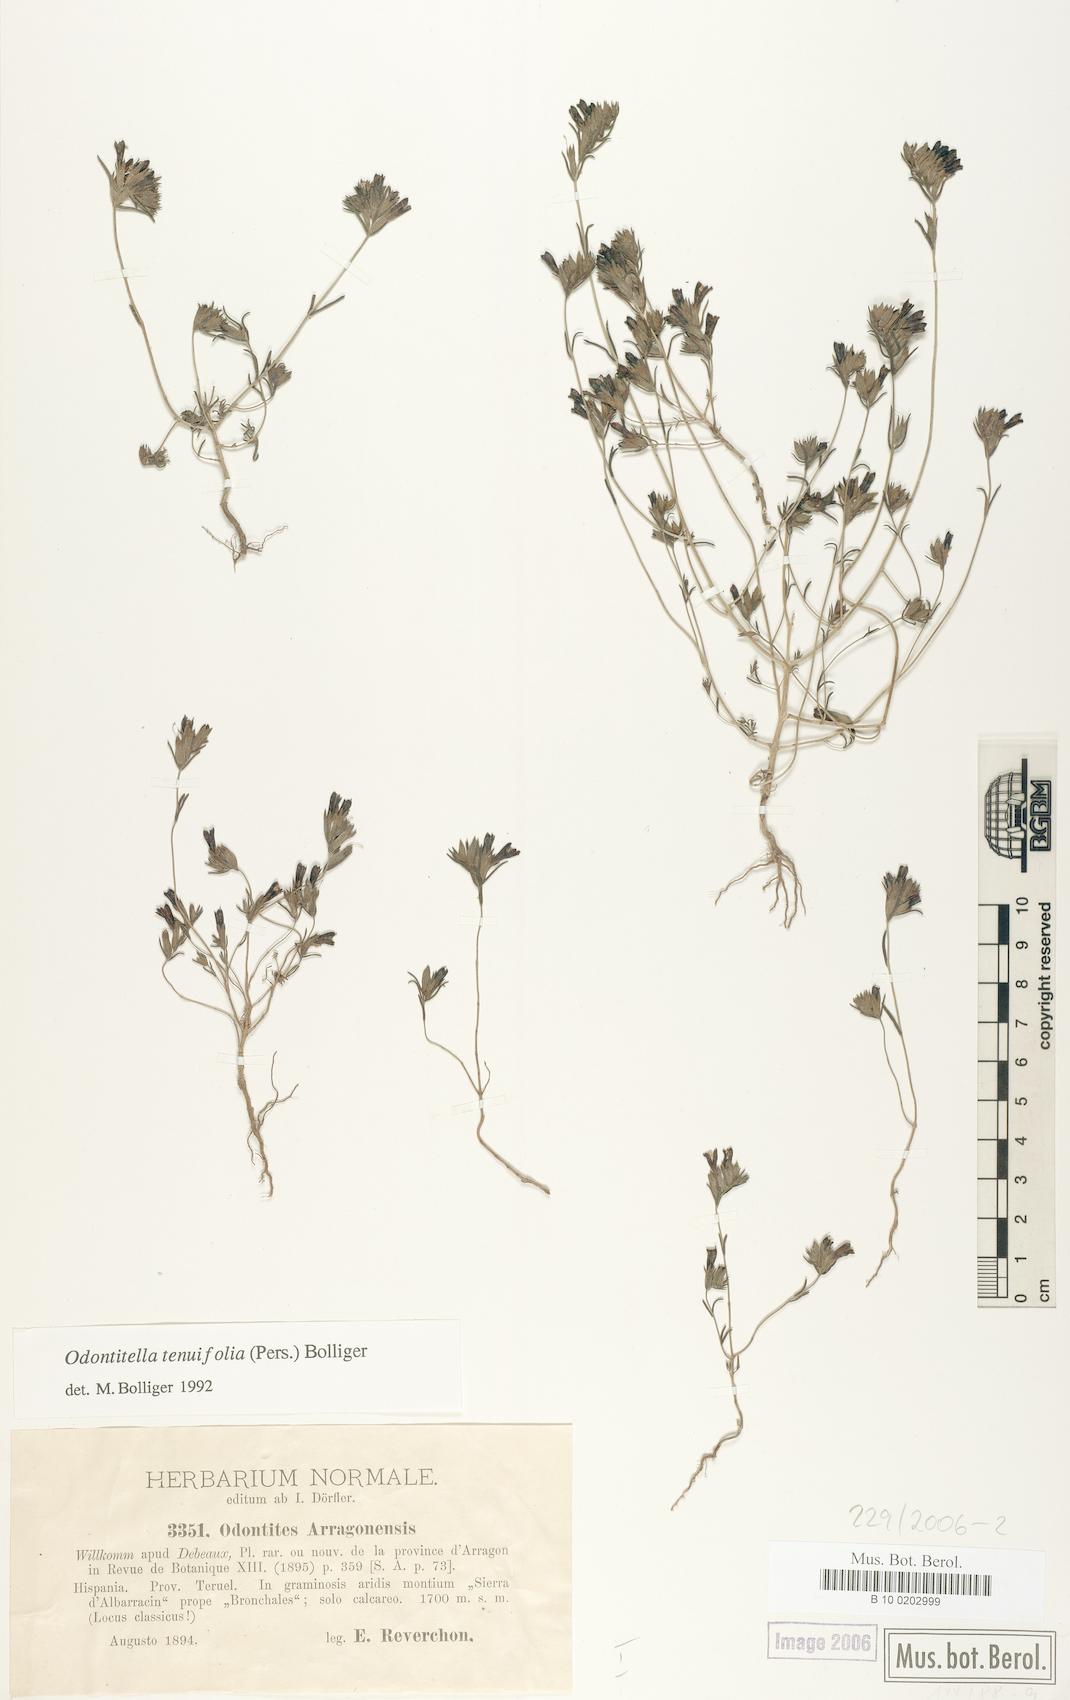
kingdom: Plantae
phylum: Tracheophyta
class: Magnoliopsida
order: Lamiales
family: Orobanchaceae
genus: Odontitella
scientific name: Odontitella virgata
